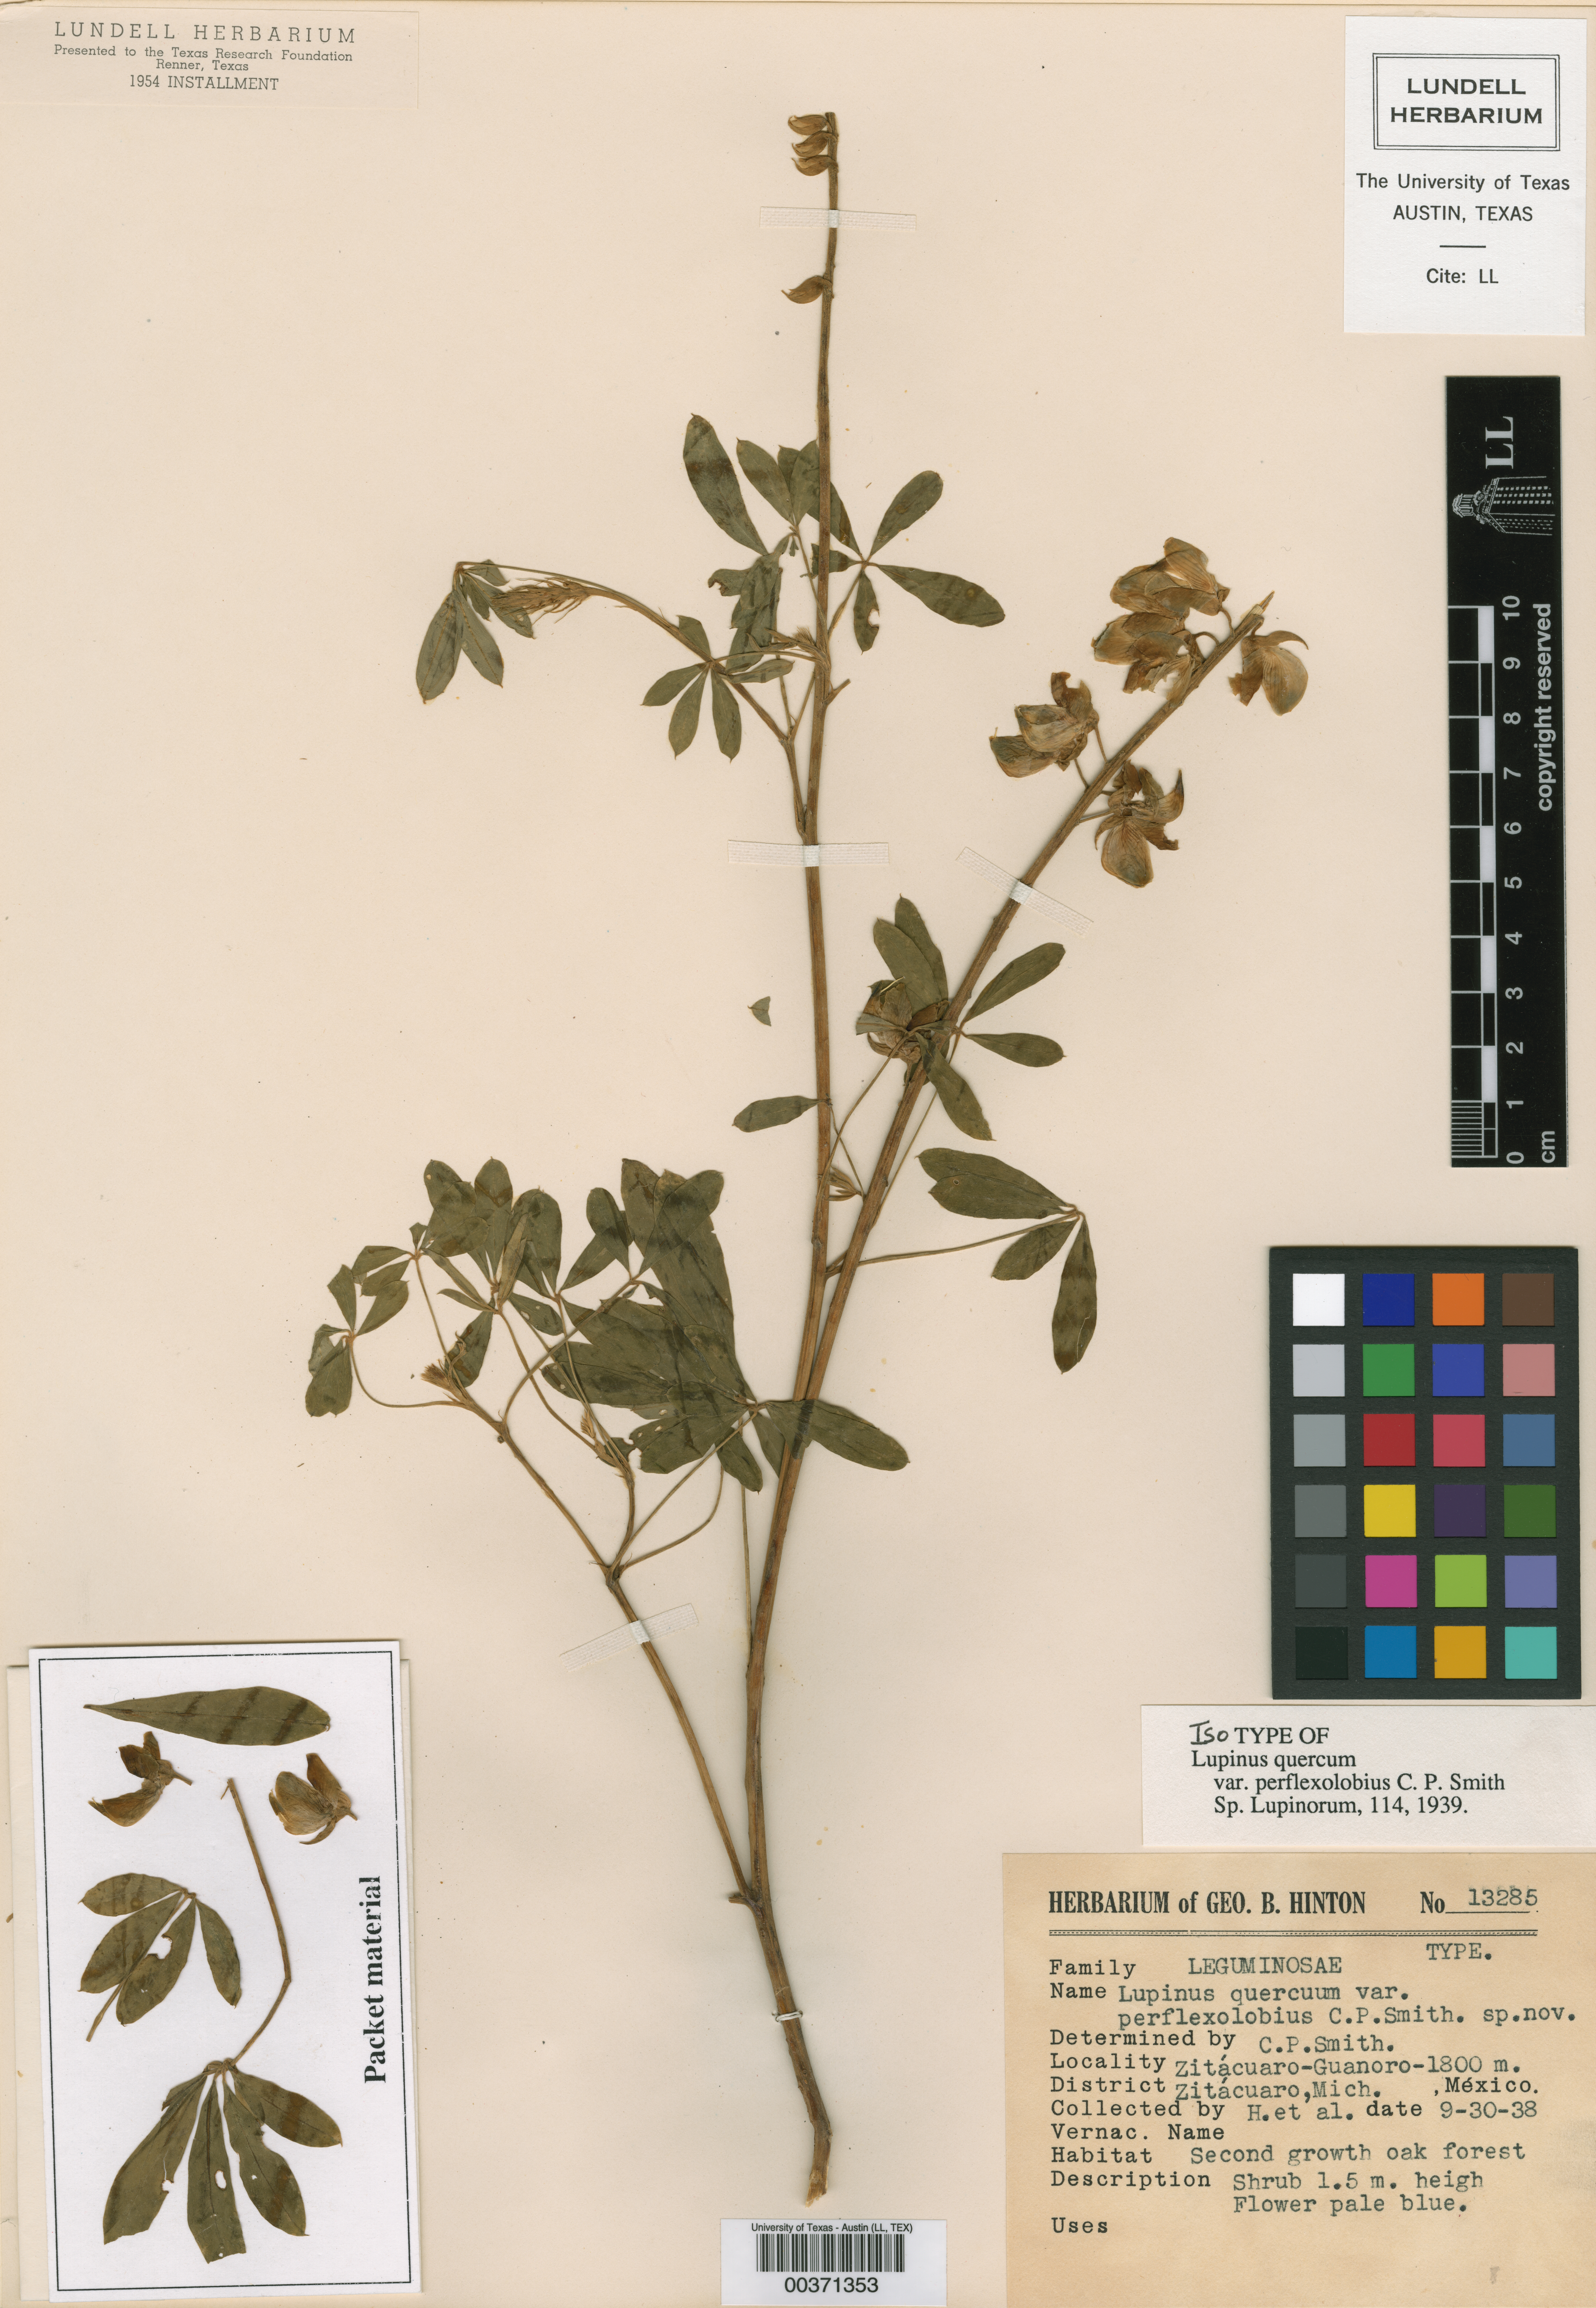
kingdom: Plantae
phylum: Tracheophyta
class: Magnoliopsida
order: Malpighiales
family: Hypericaceae
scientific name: Hypericaceae
